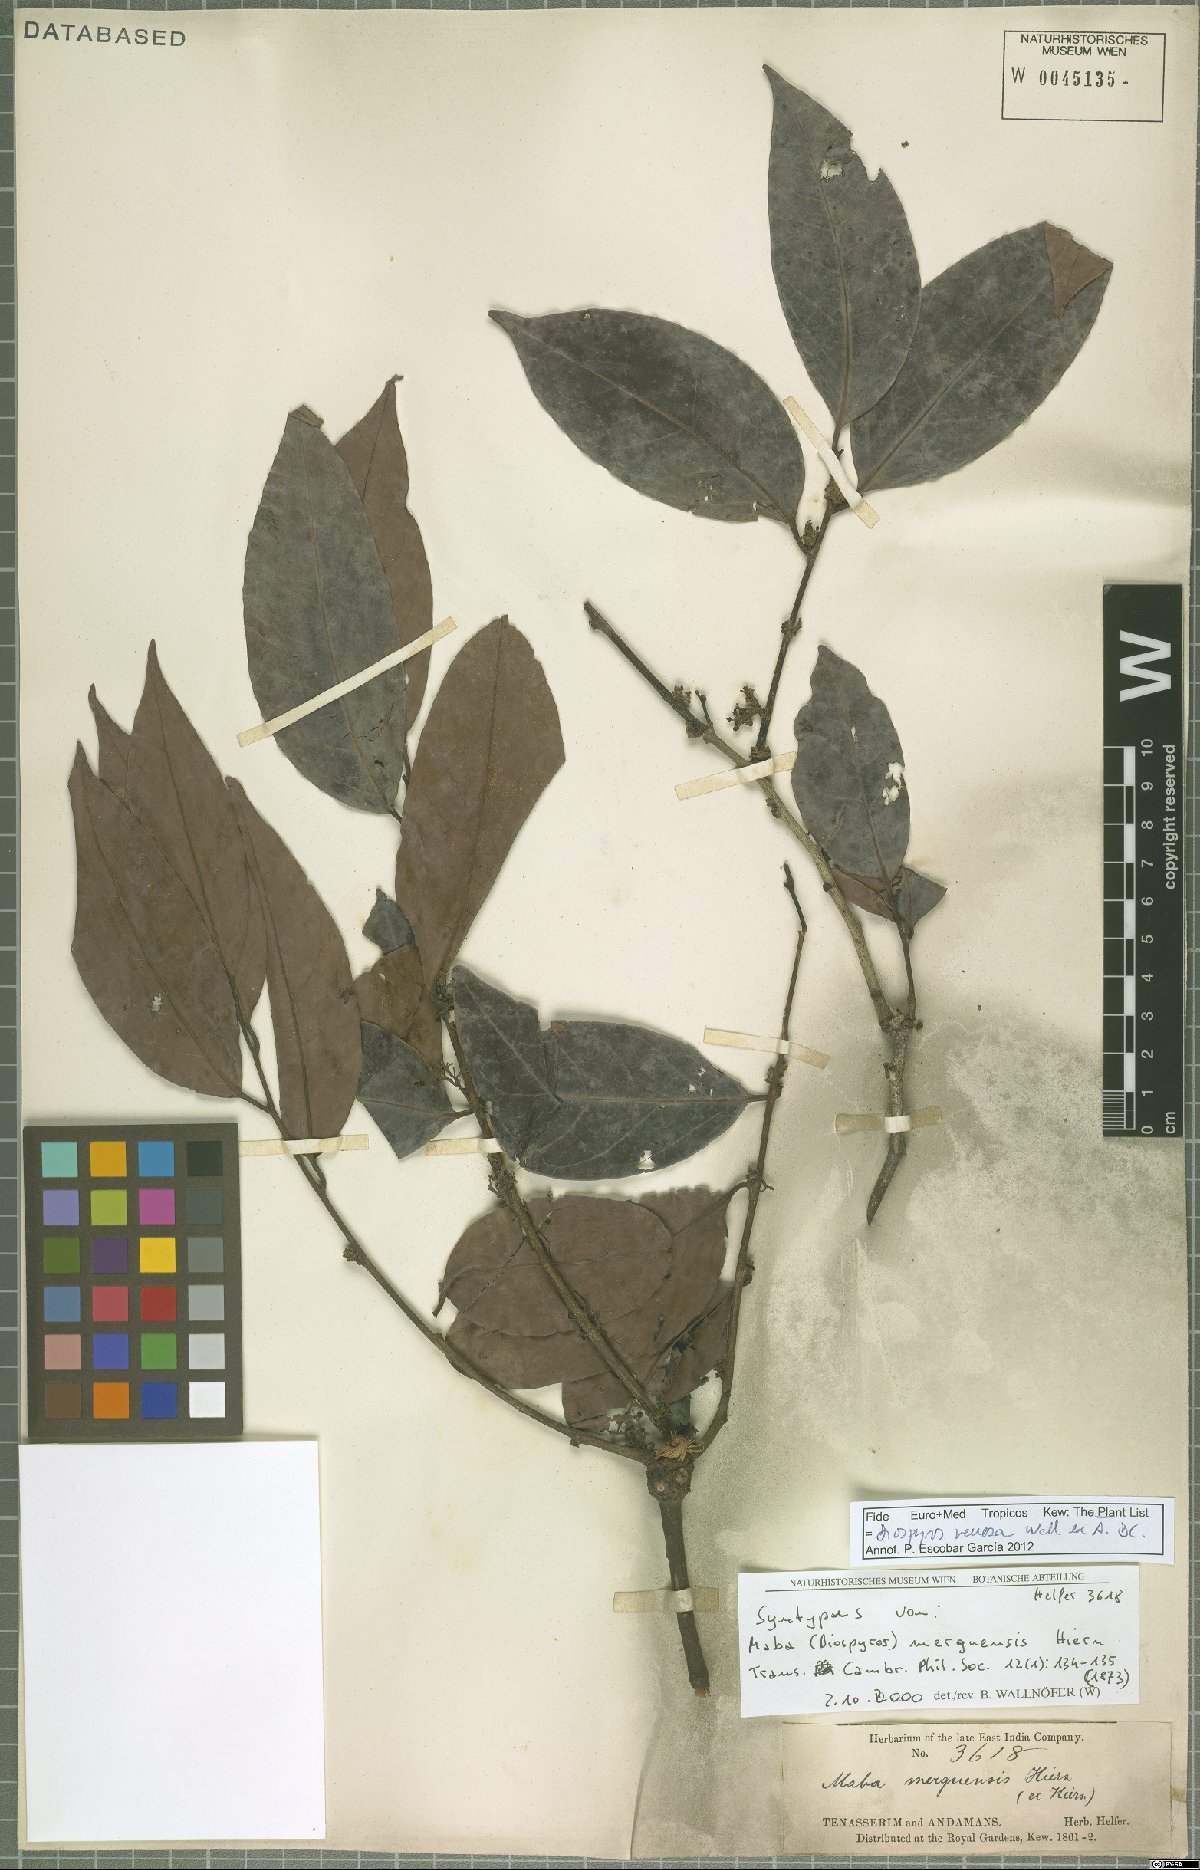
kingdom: Plantae
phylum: Tracheophyta
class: Magnoliopsida
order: Ericales
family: Ebenaceae
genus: Diospyros
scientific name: Diospyros venosa
